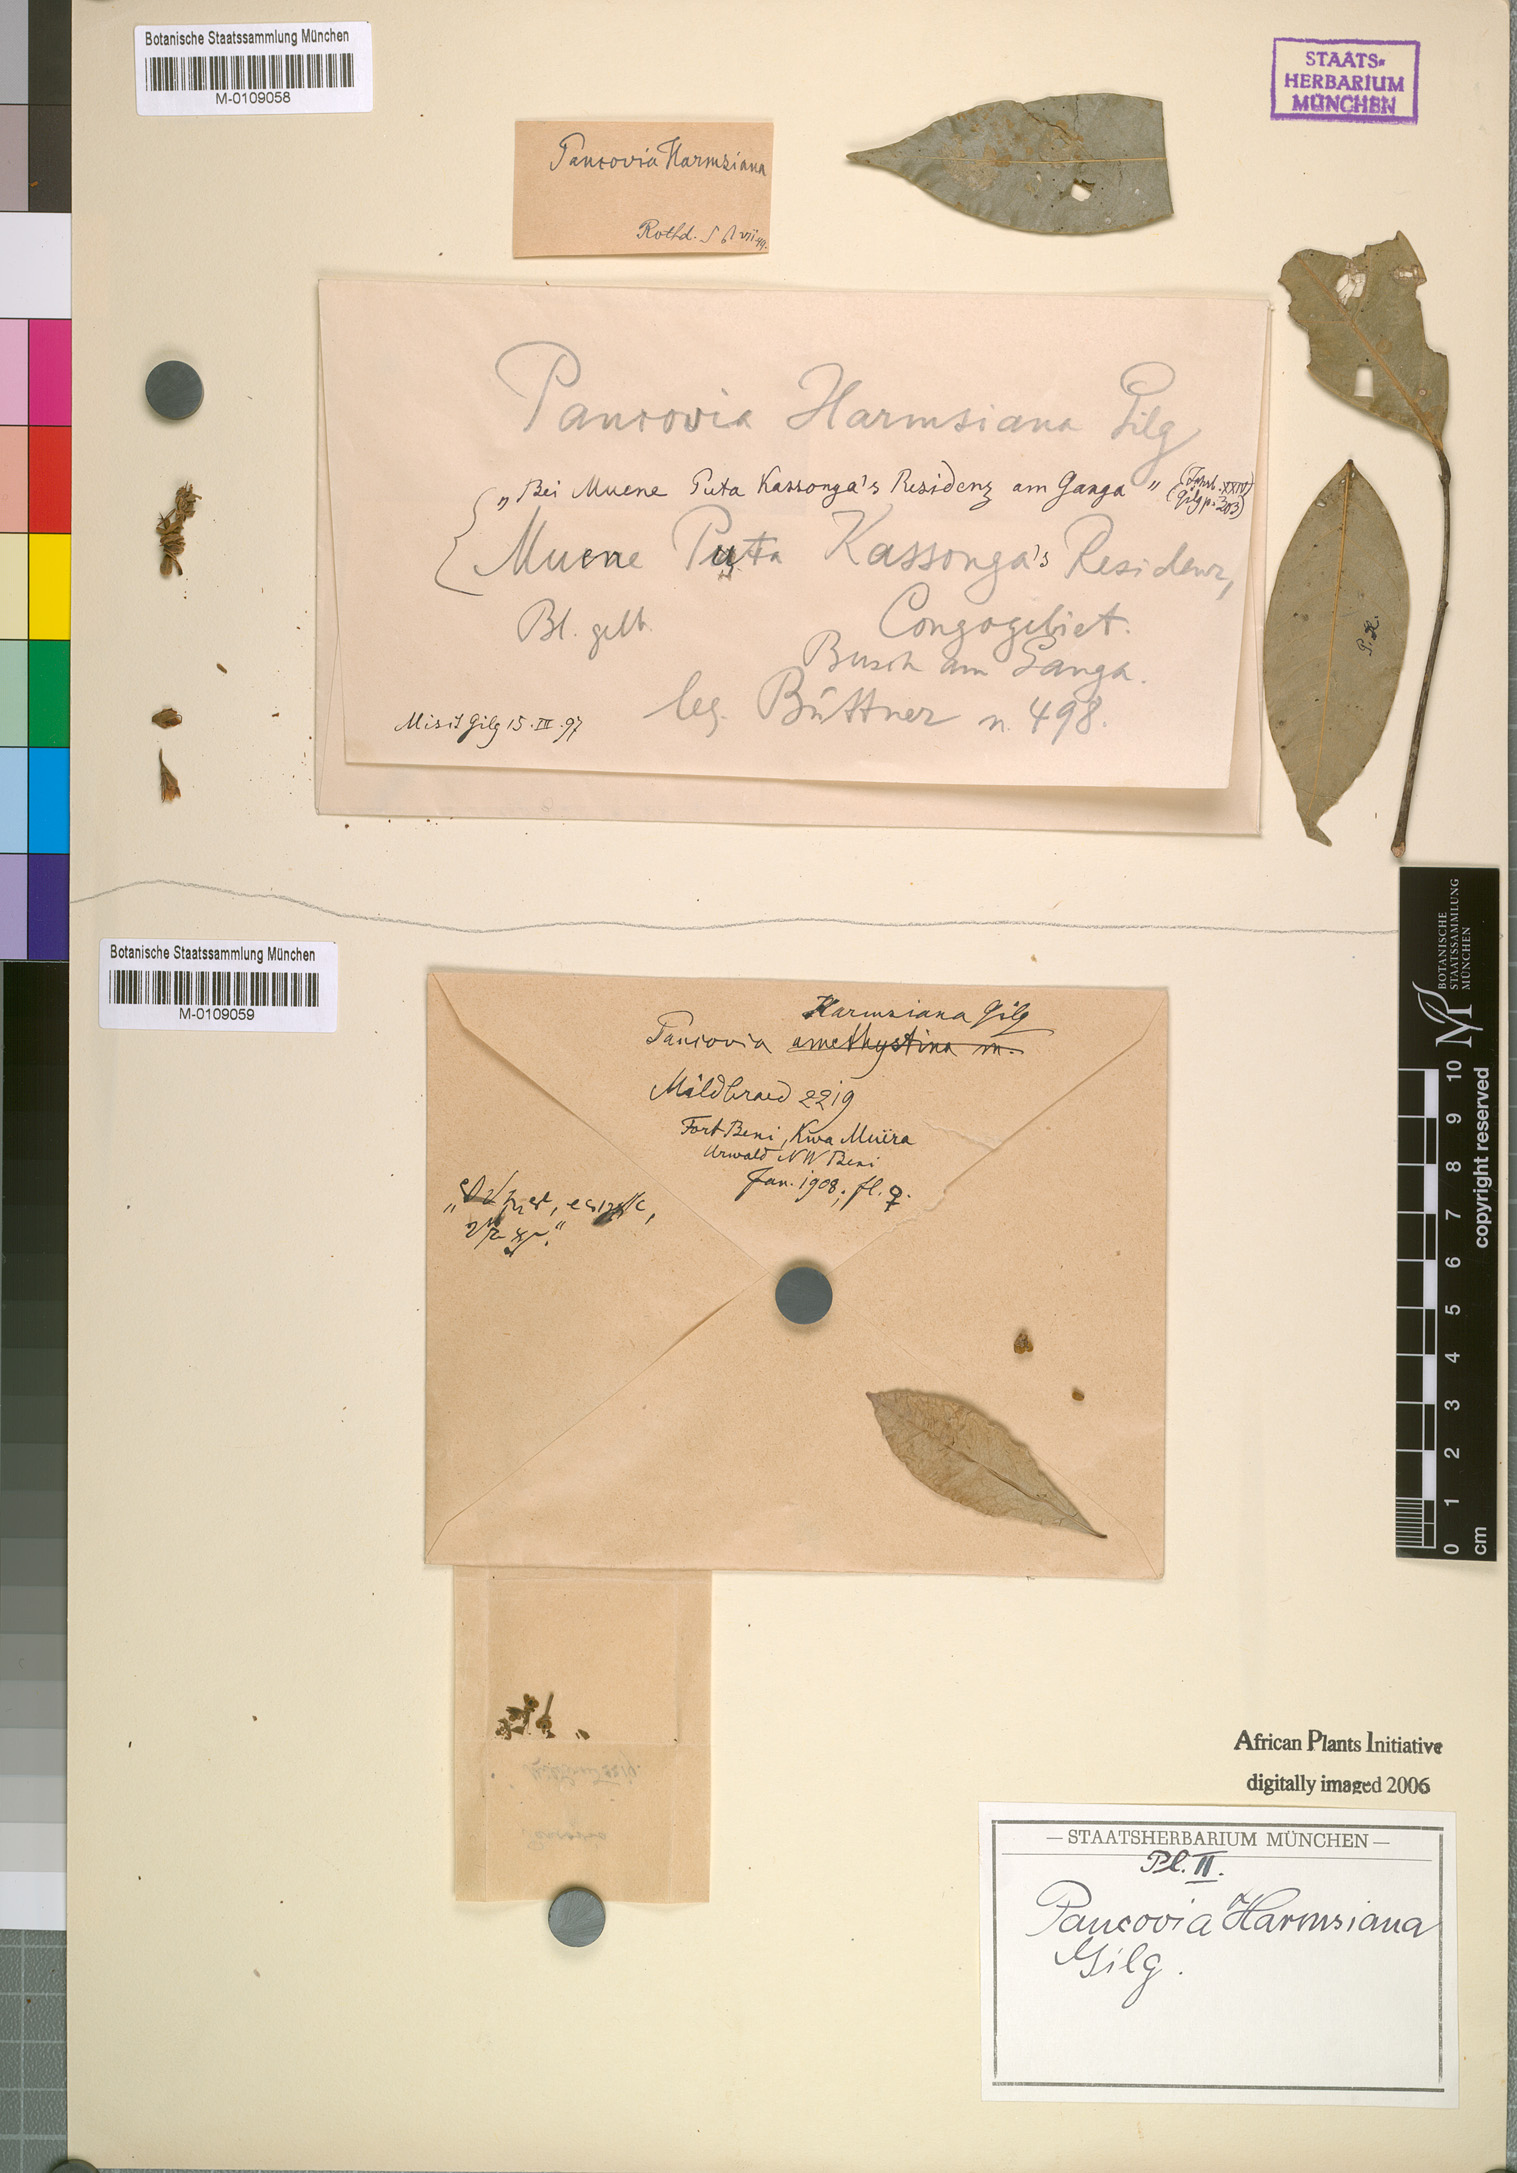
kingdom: Plantae
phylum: Tracheophyta
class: Magnoliopsida
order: Sapindales
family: Sapindaceae
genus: Pancovia
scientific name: Pancovia harmsiana
